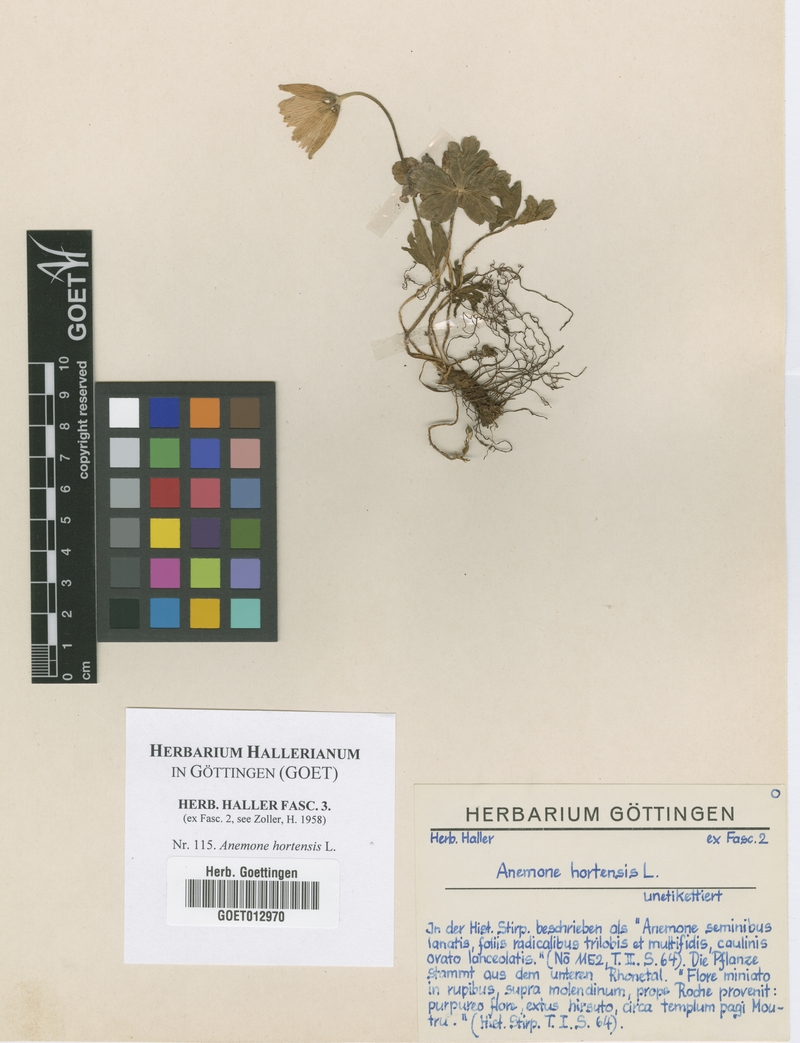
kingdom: Plantae
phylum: Tracheophyta
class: Magnoliopsida
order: Ranunculales
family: Ranunculaceae
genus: Anemone
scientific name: Anemone hortensis
